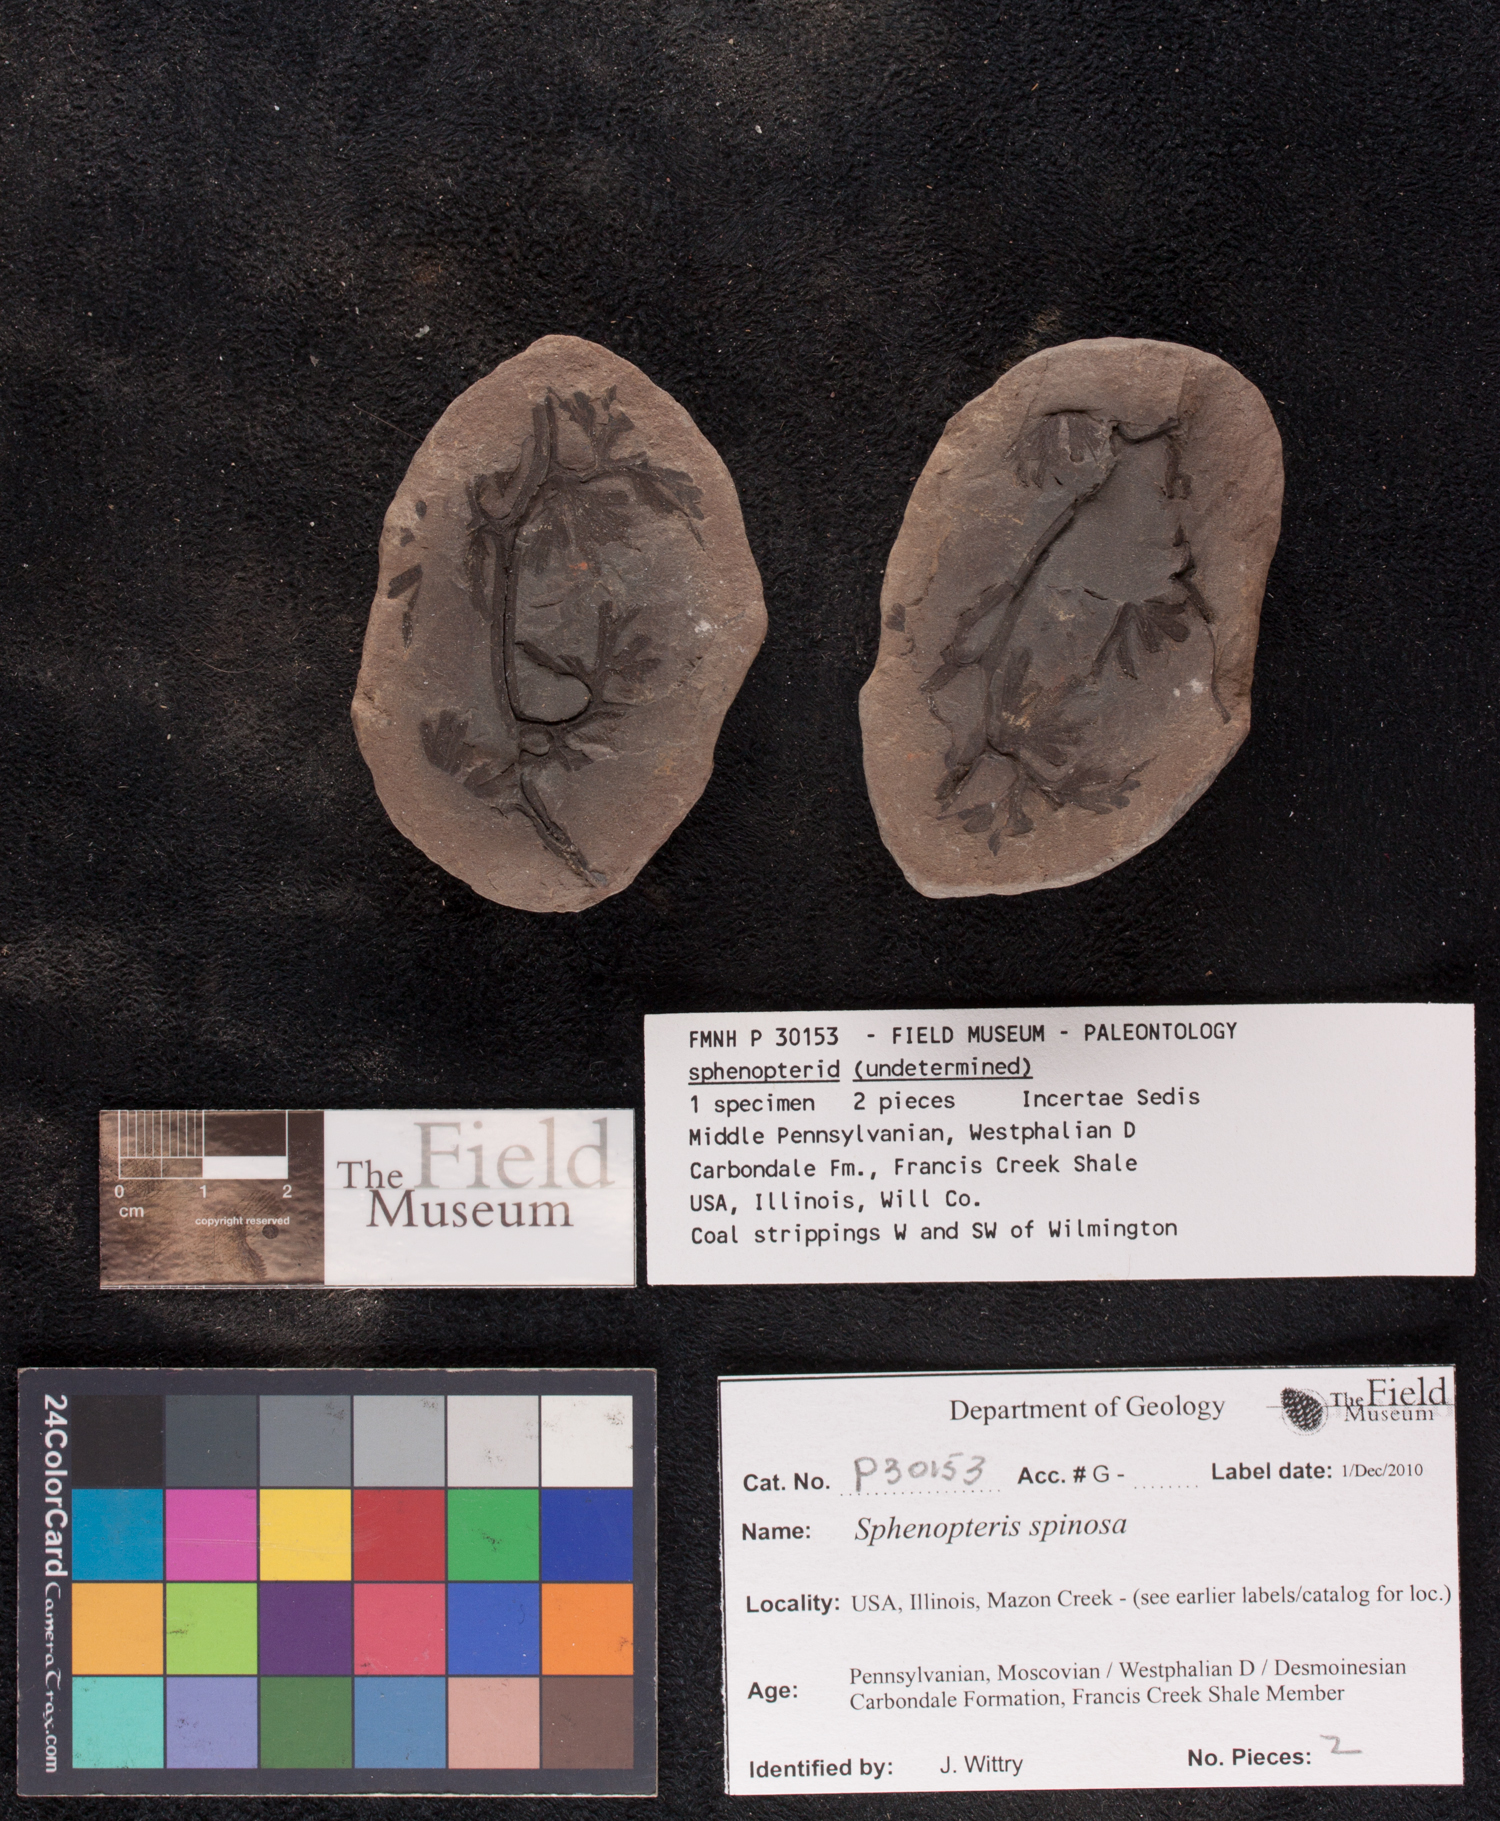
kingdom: Plantae
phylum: Tracheophyta
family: Lyginopteridaceae
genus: Sphenopteris
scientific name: Sphenopteris
